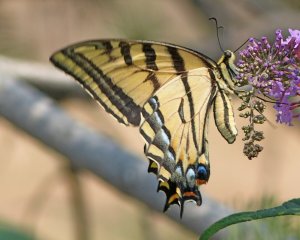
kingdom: Animalia
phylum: Arthropoda
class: Insecta
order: Lepidoptera
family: Papilionidae
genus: Pterourus
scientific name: Pterourus rutulus
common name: Western Tiger Swallowtail
